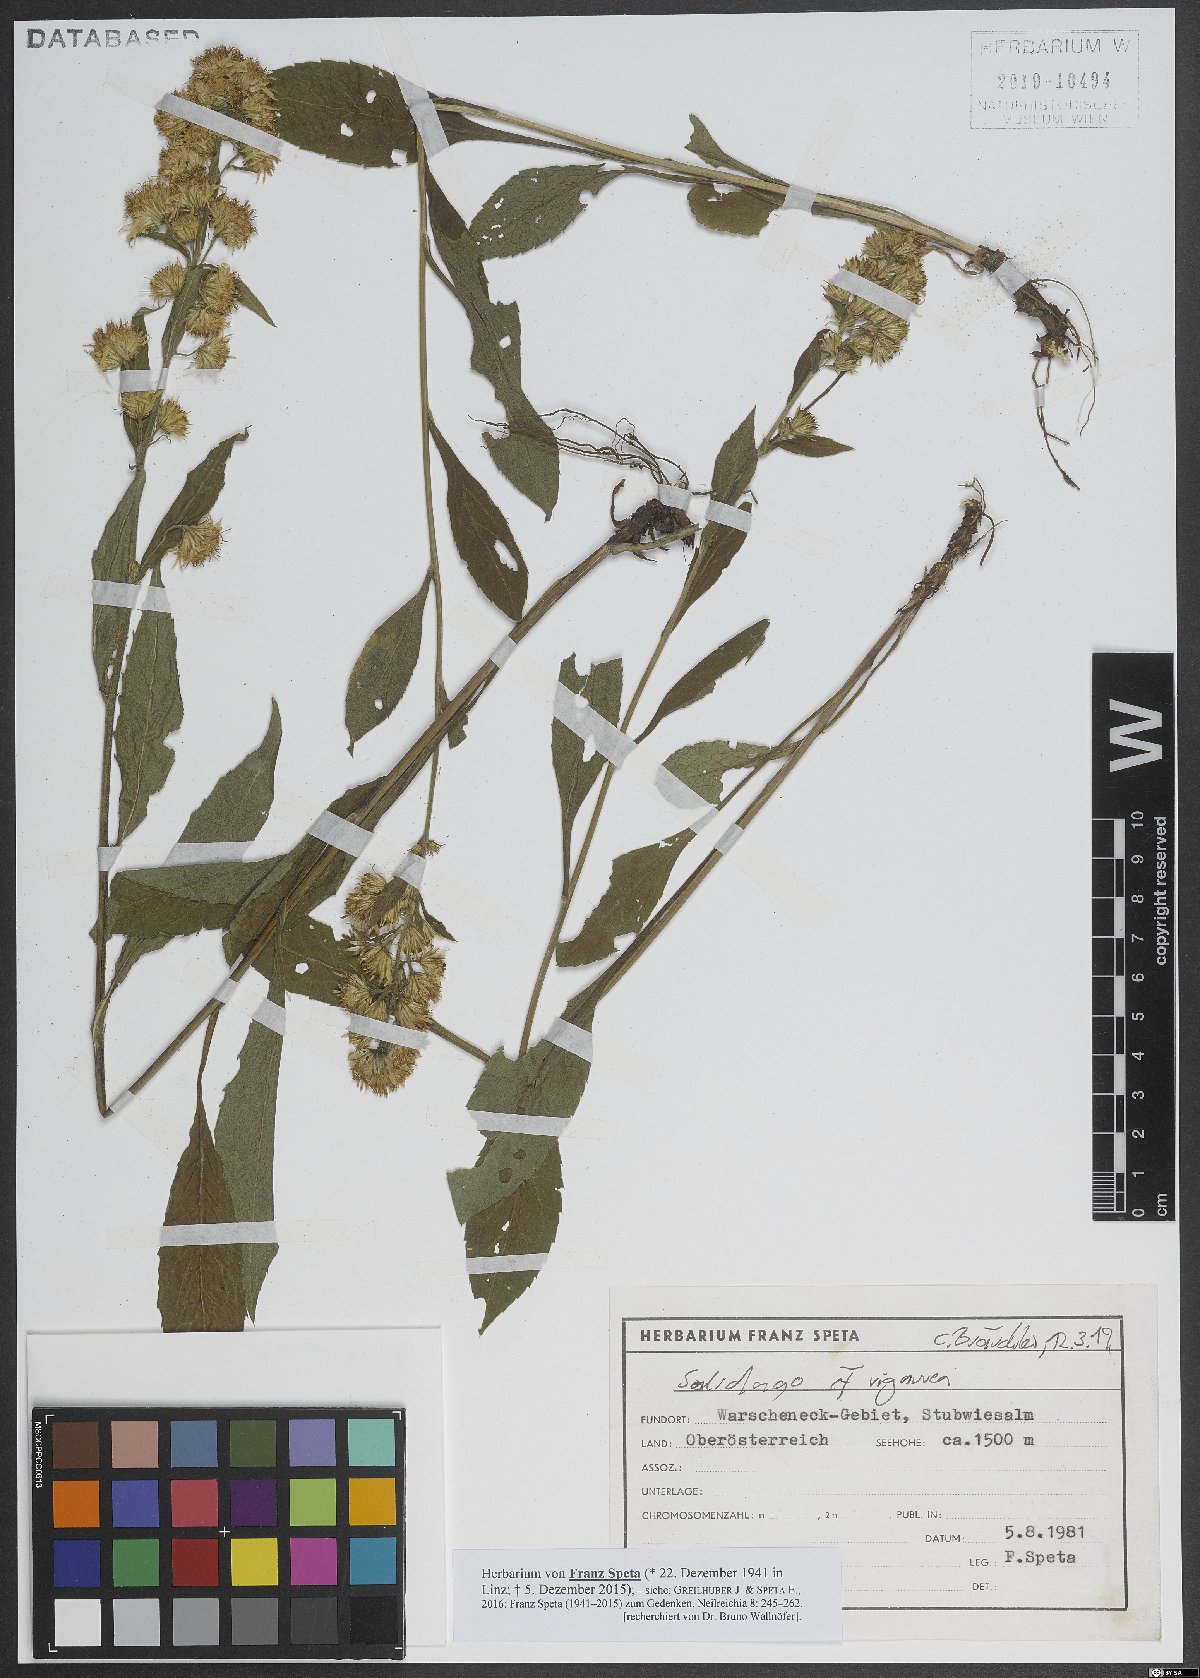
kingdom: Plantae
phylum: Tracheophyta
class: Magnoliopsida
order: Asterales
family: Asteraceae
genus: Solidago
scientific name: Solidago virgaurea
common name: Goldenrod
